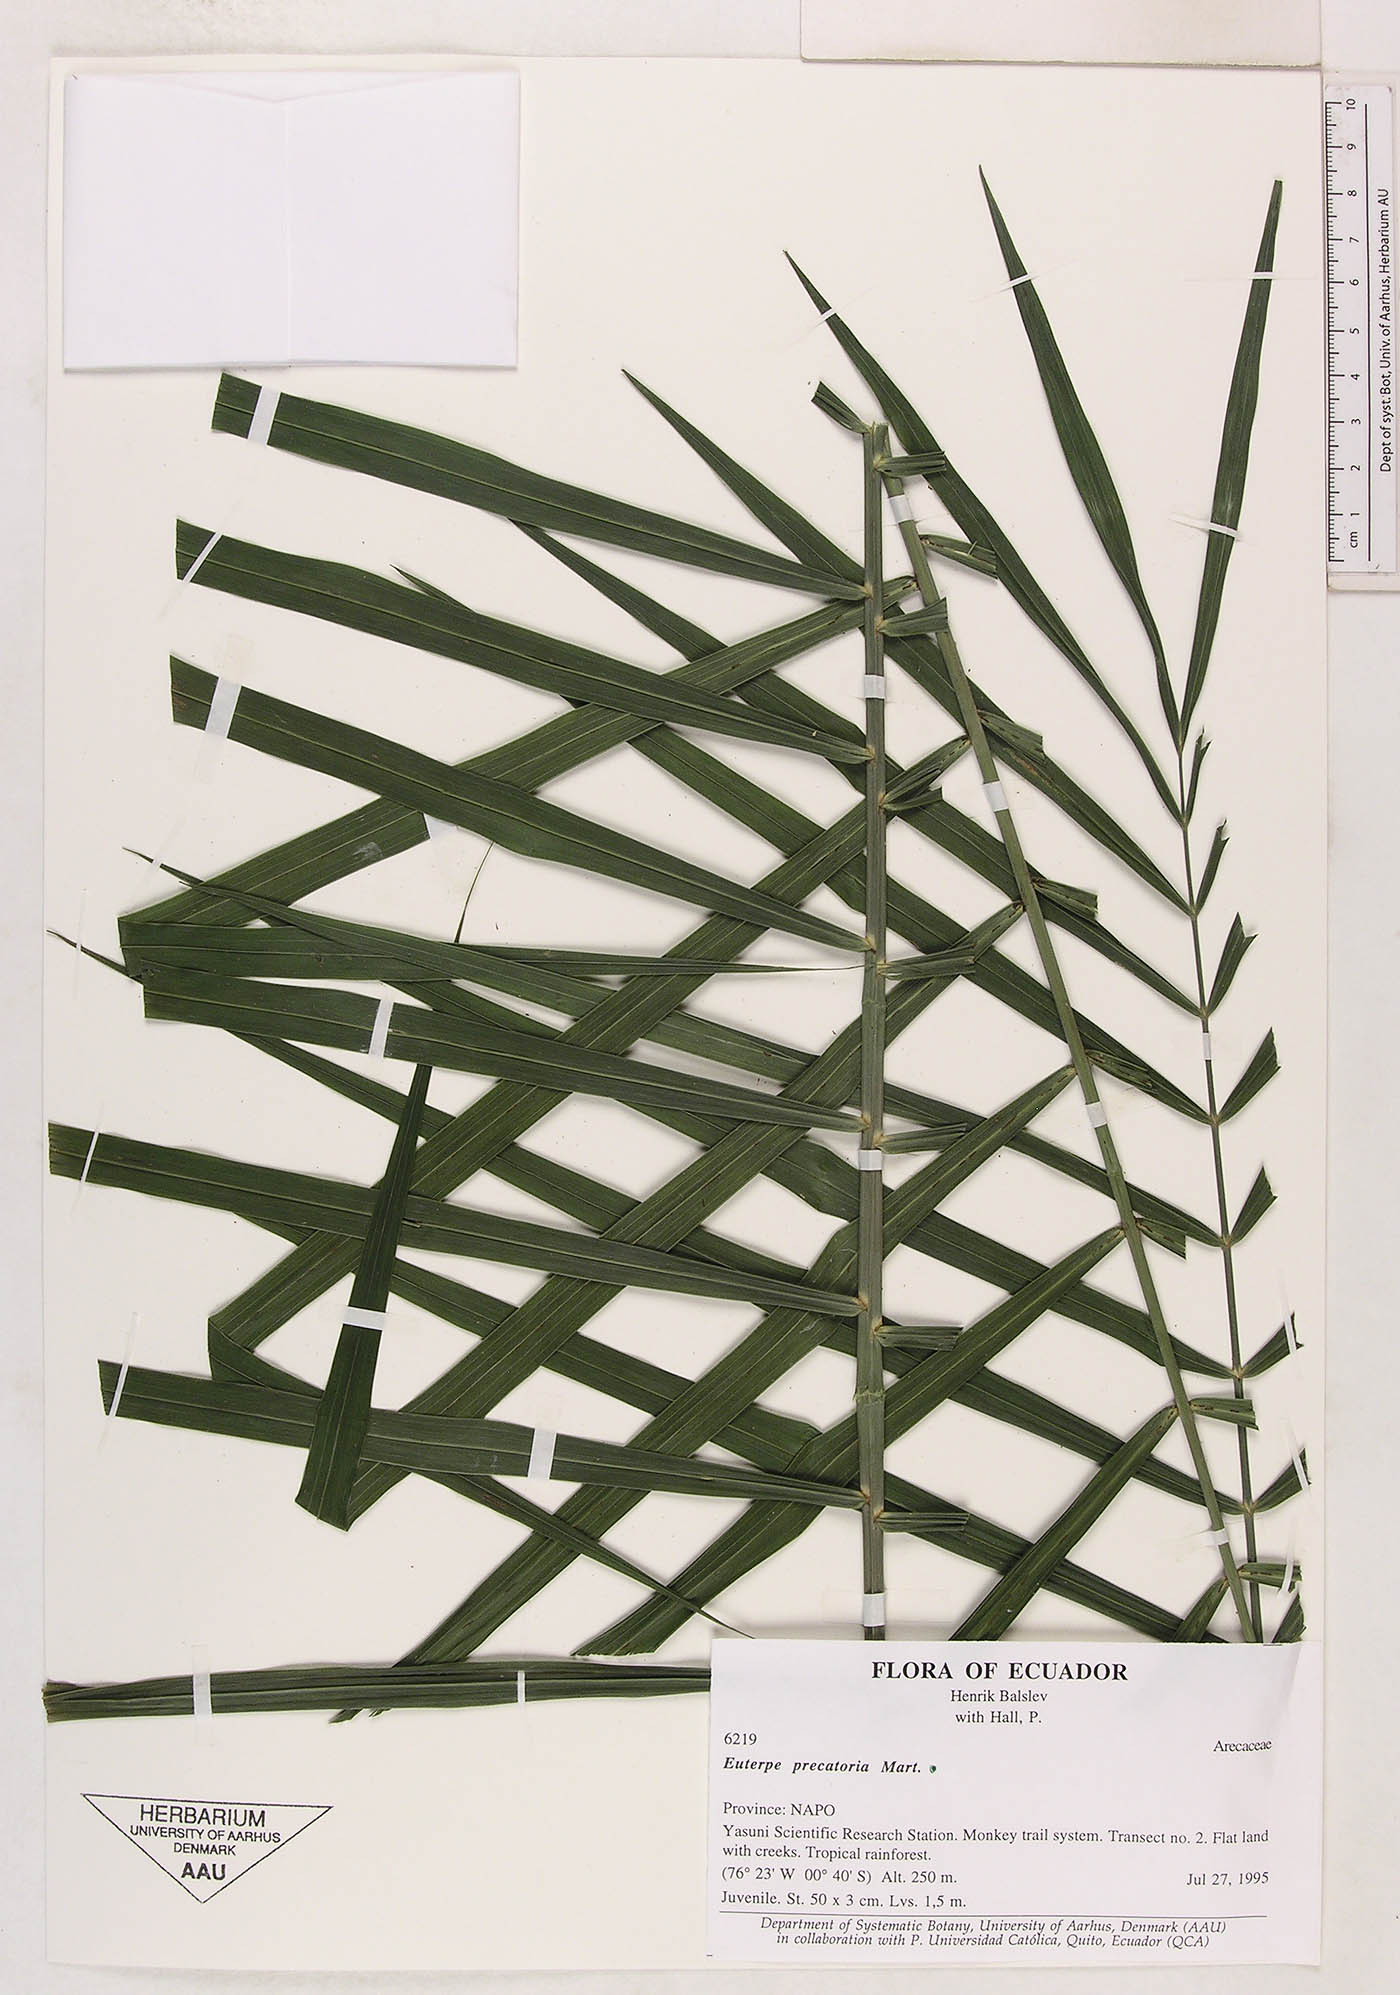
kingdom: Plantae
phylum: Tracheophyta
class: Liliopsida
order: Arecales
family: Arecaceae
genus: Euterpe
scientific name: Euterpe precatoria
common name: Mountain-cabbage
